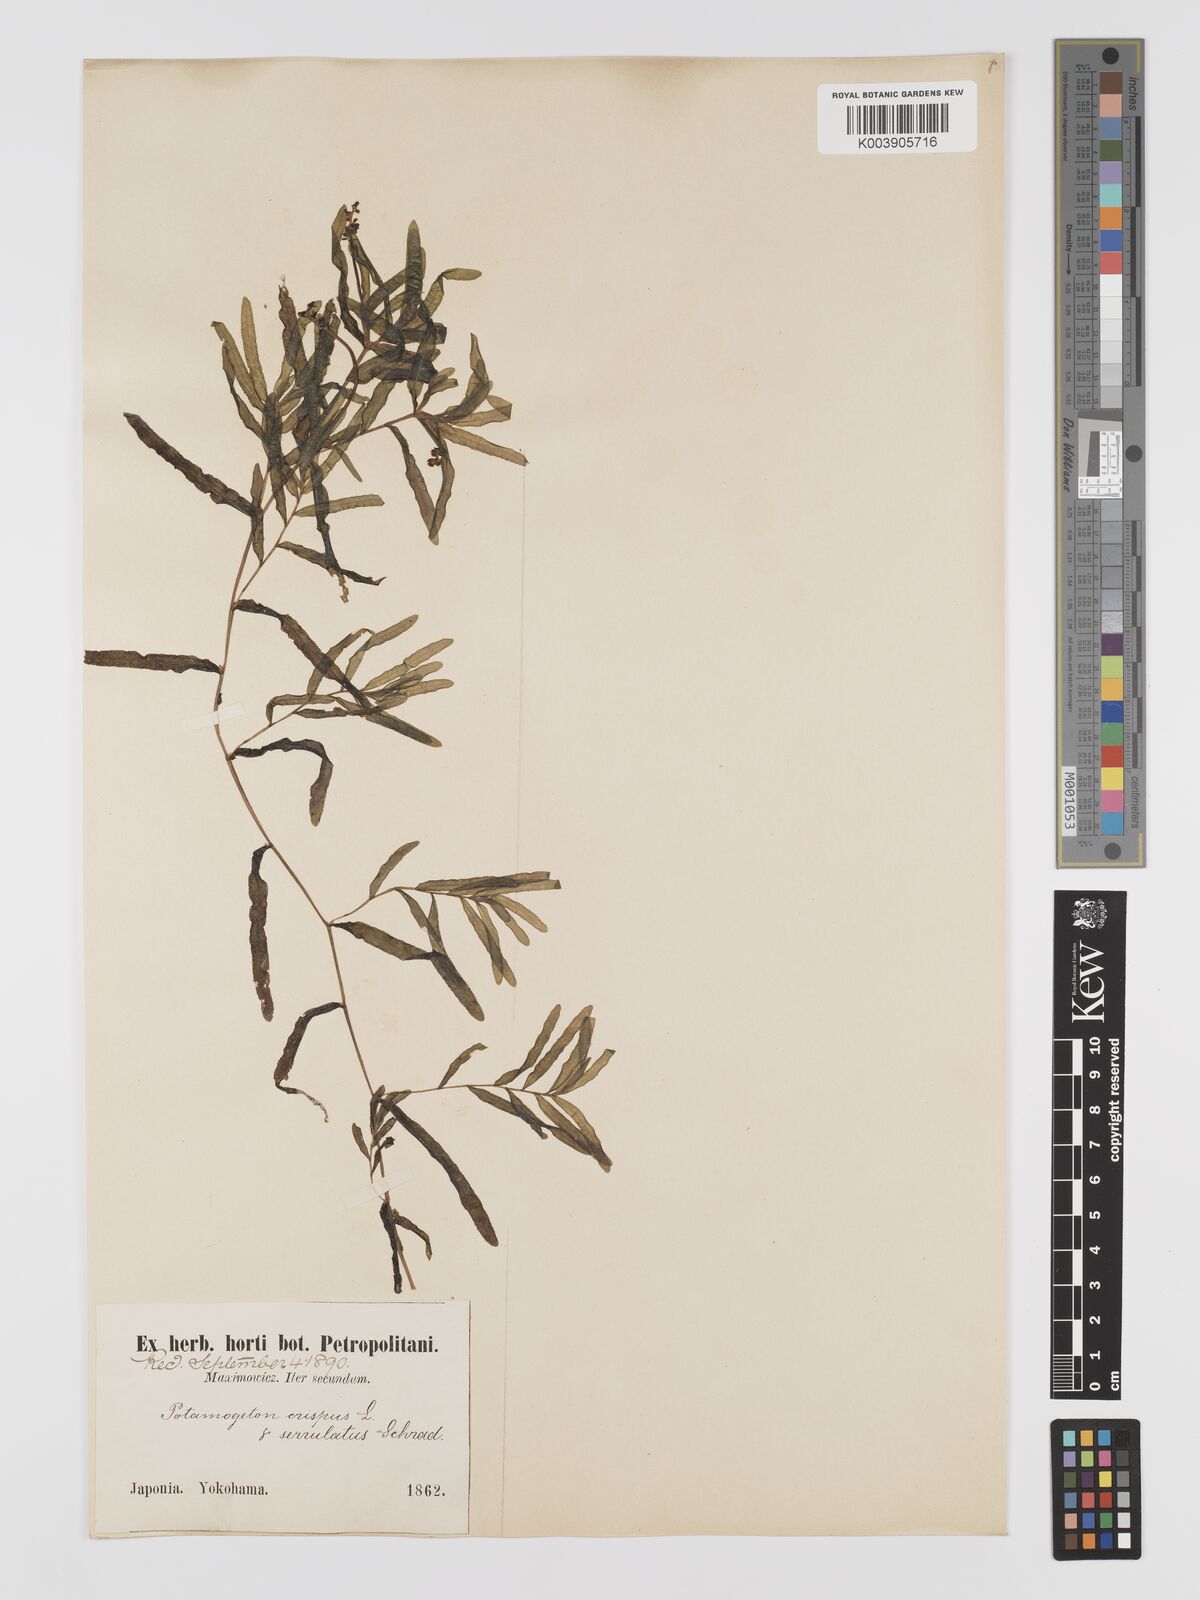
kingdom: Plantae
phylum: Tracheophyta
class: Liliopsida
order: Alismatales
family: Potamogetonaceae
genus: Potamogeton
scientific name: Potamogeton crispus
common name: Curled pondweed
